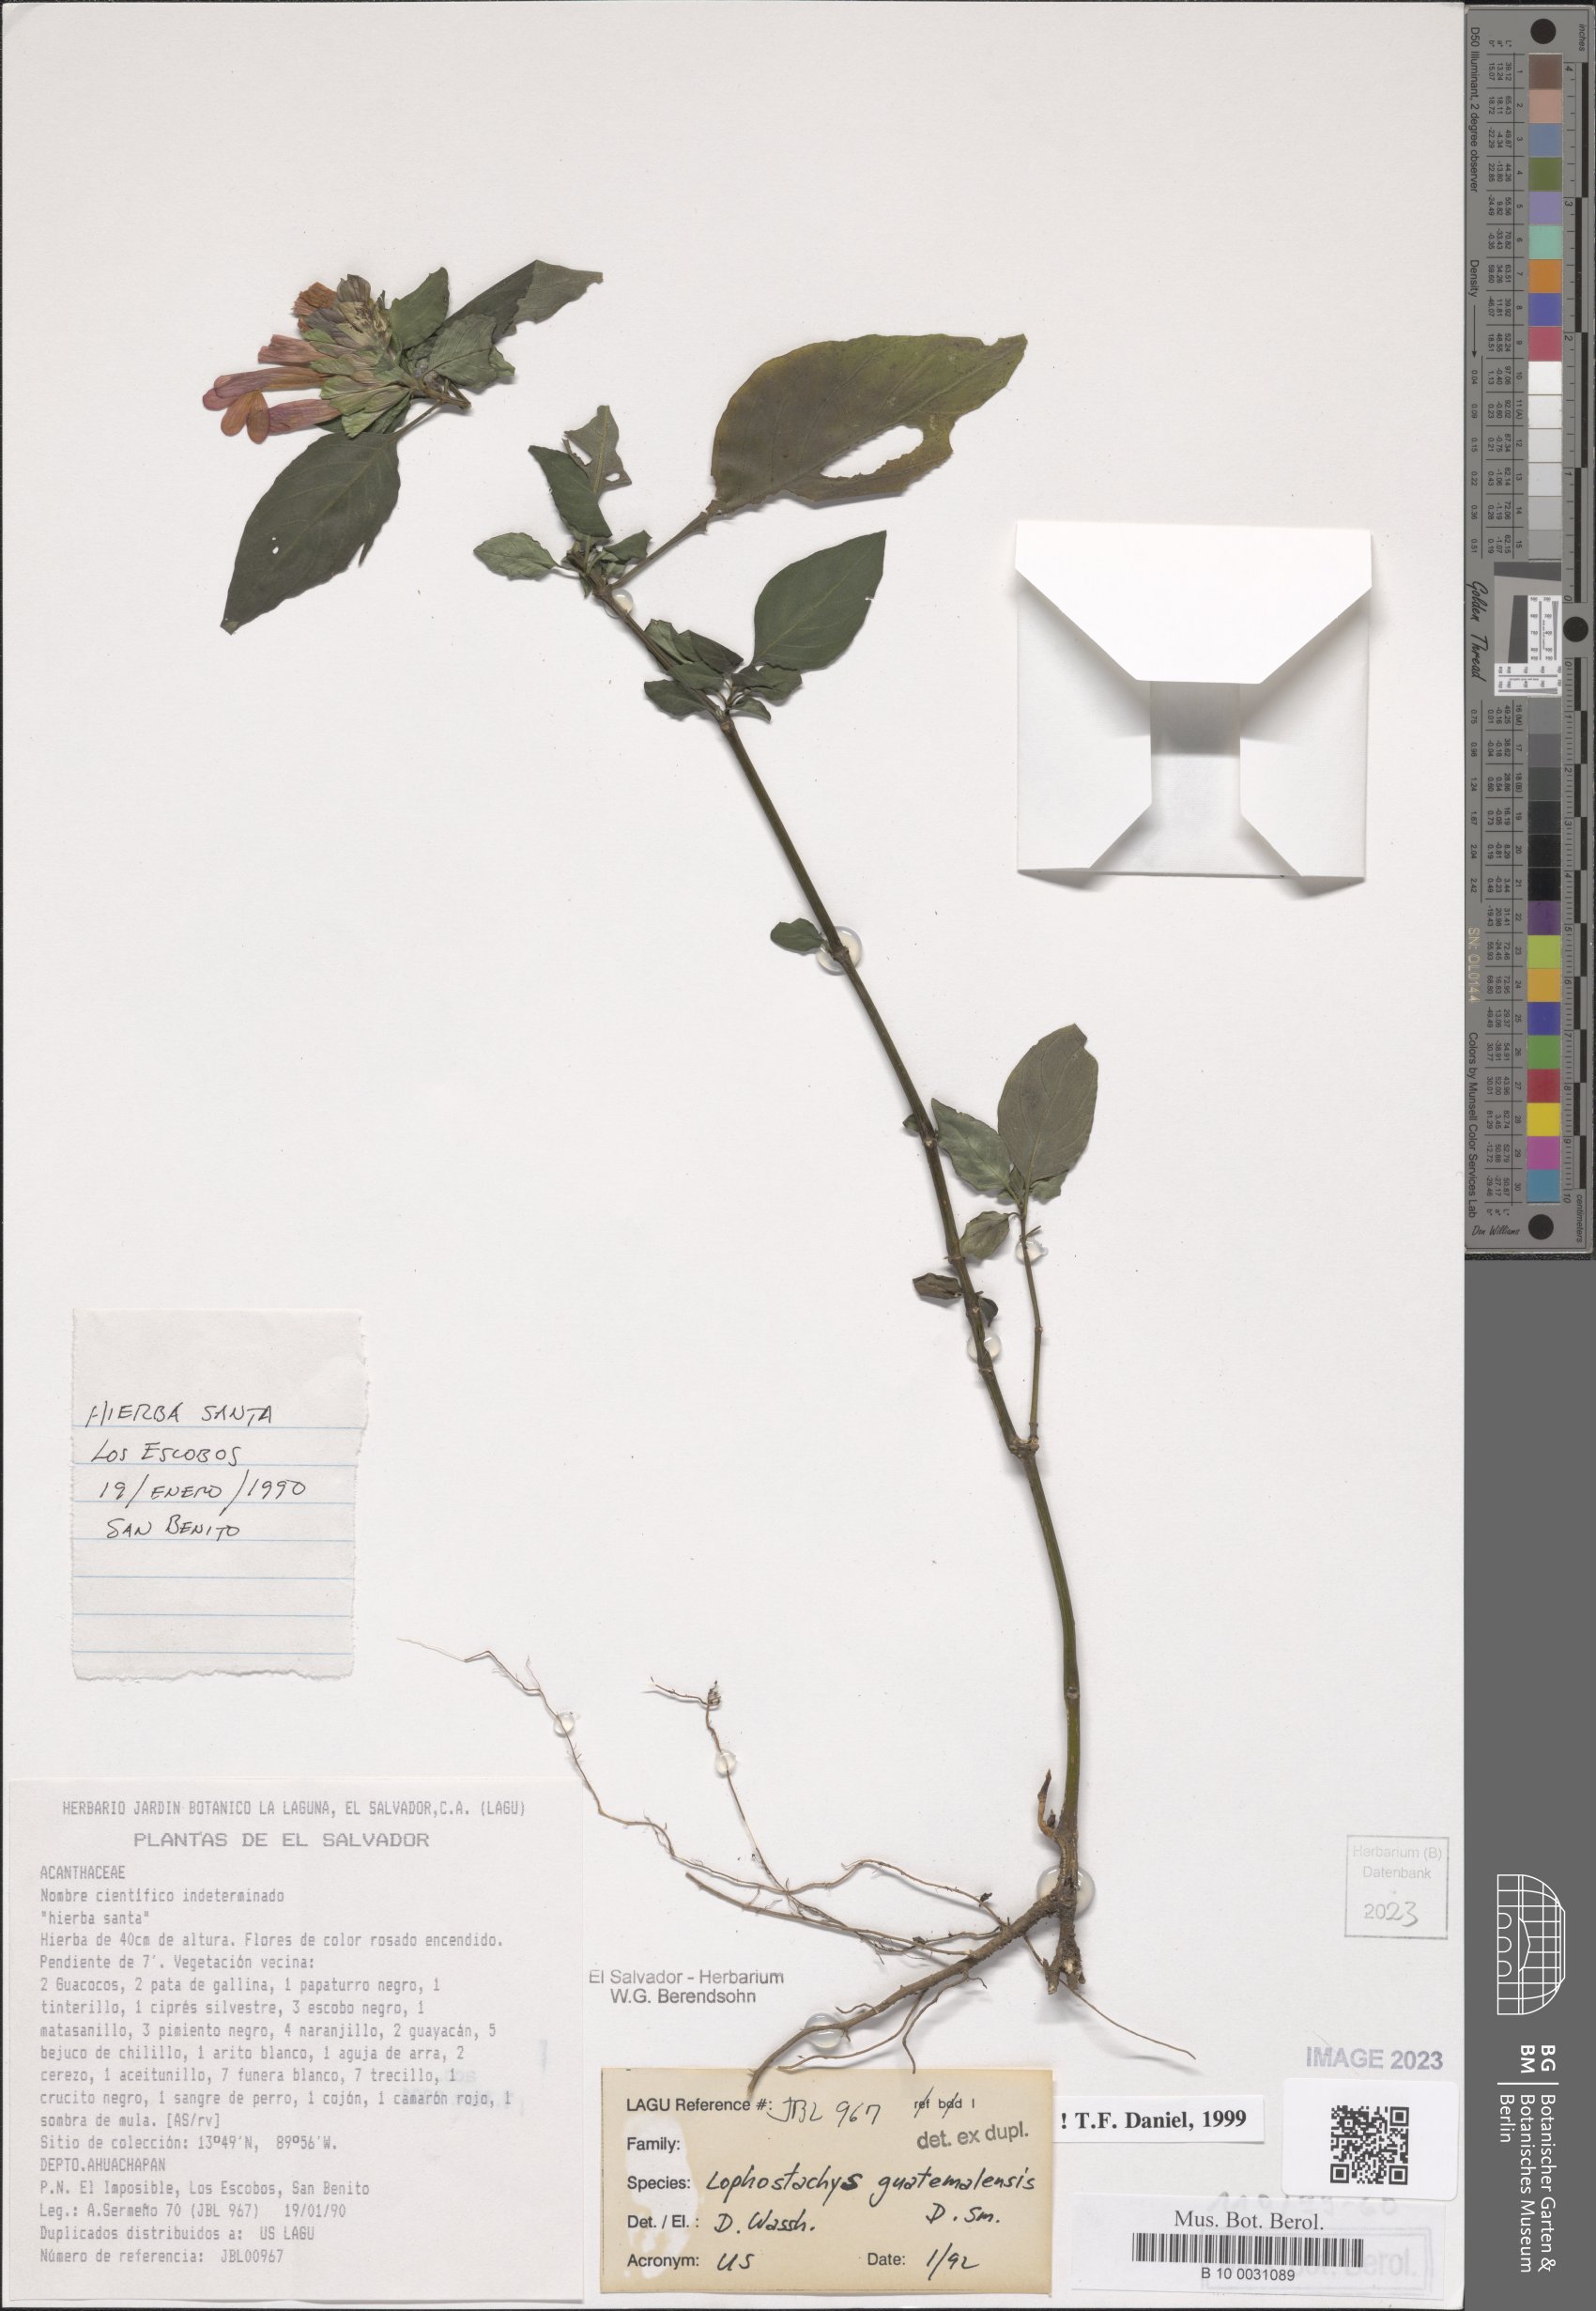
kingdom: Plantae
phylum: Tracheophyta
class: Magnoliopsida
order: Lamiales
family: Acanthaceae
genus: Lepidagathis
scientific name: Lepidagathis guatemalensis
